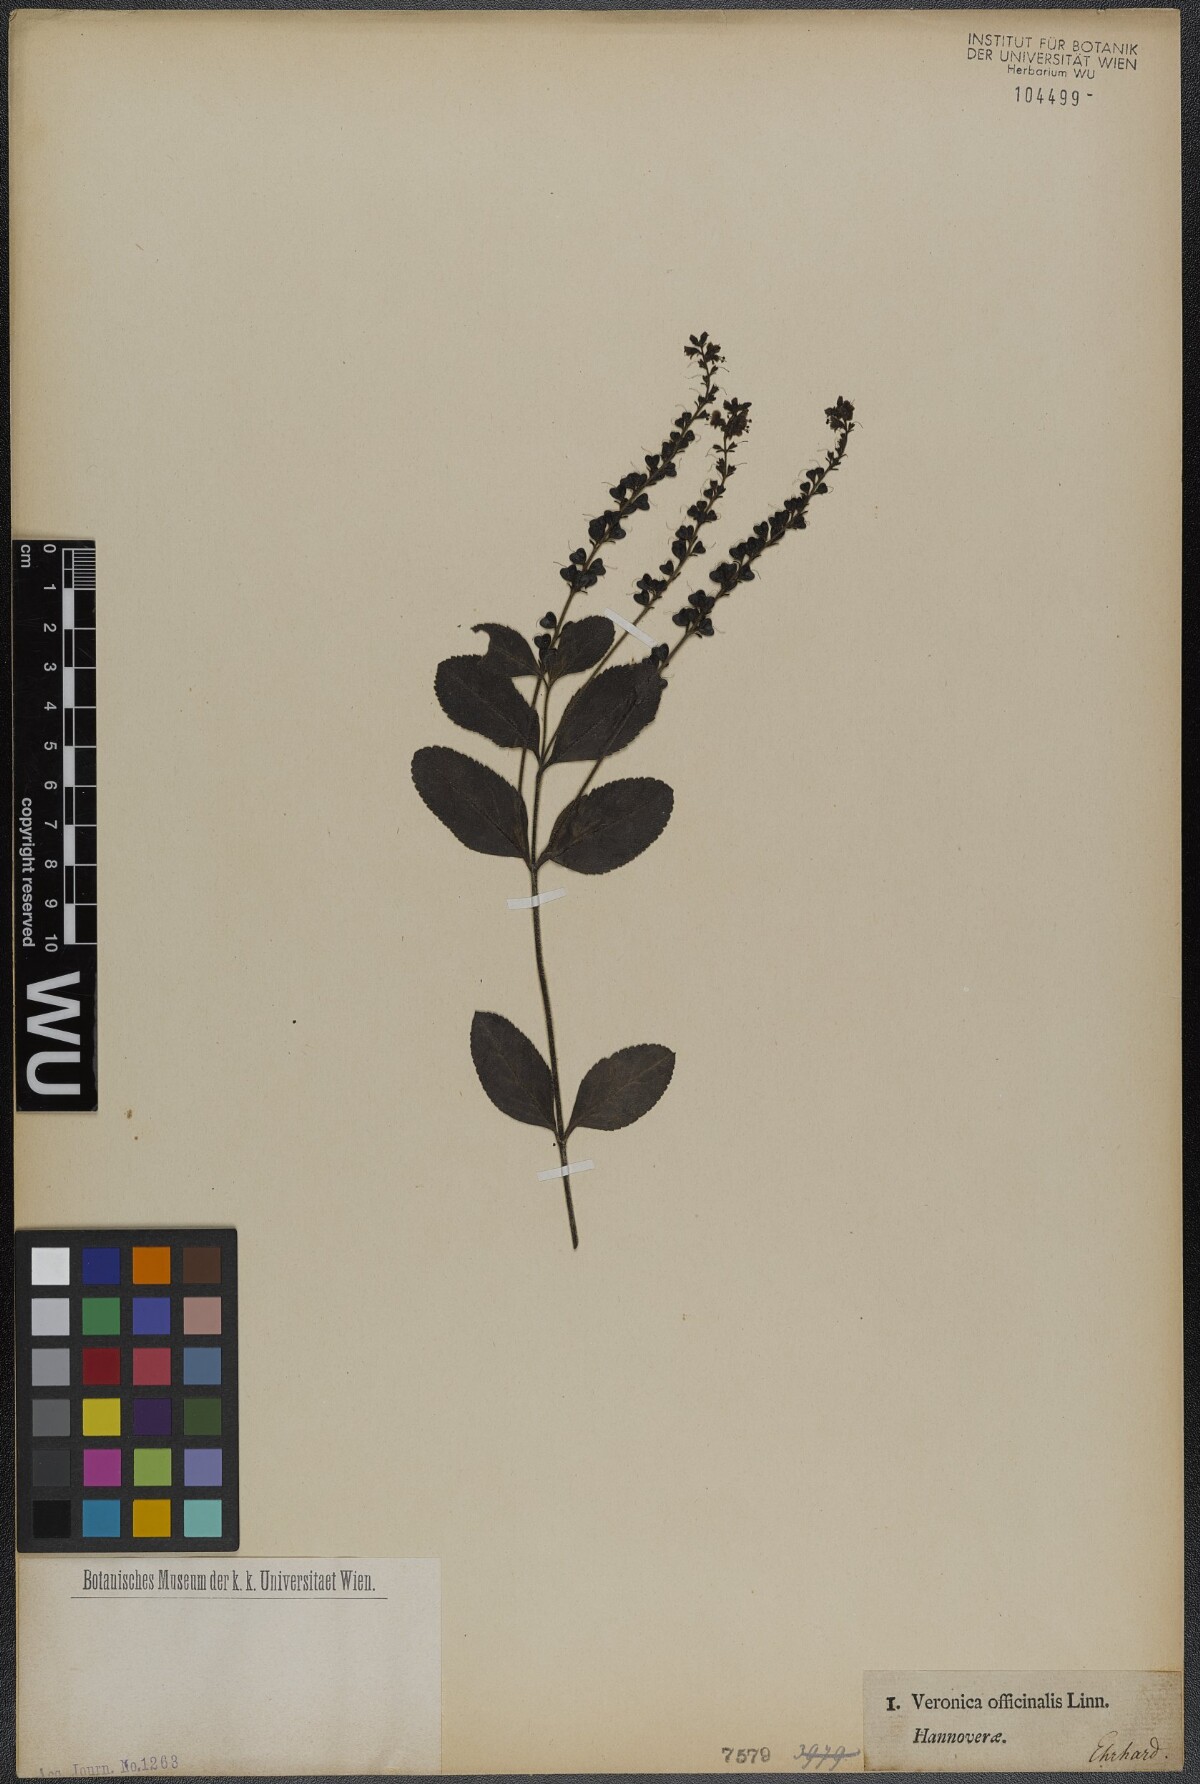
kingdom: Plantae
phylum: Tracheophyta
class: Magnoliopsida
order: Lamiales
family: Plantaginaceae
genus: Veronica
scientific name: Veronica officinalis
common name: Common speedwell
